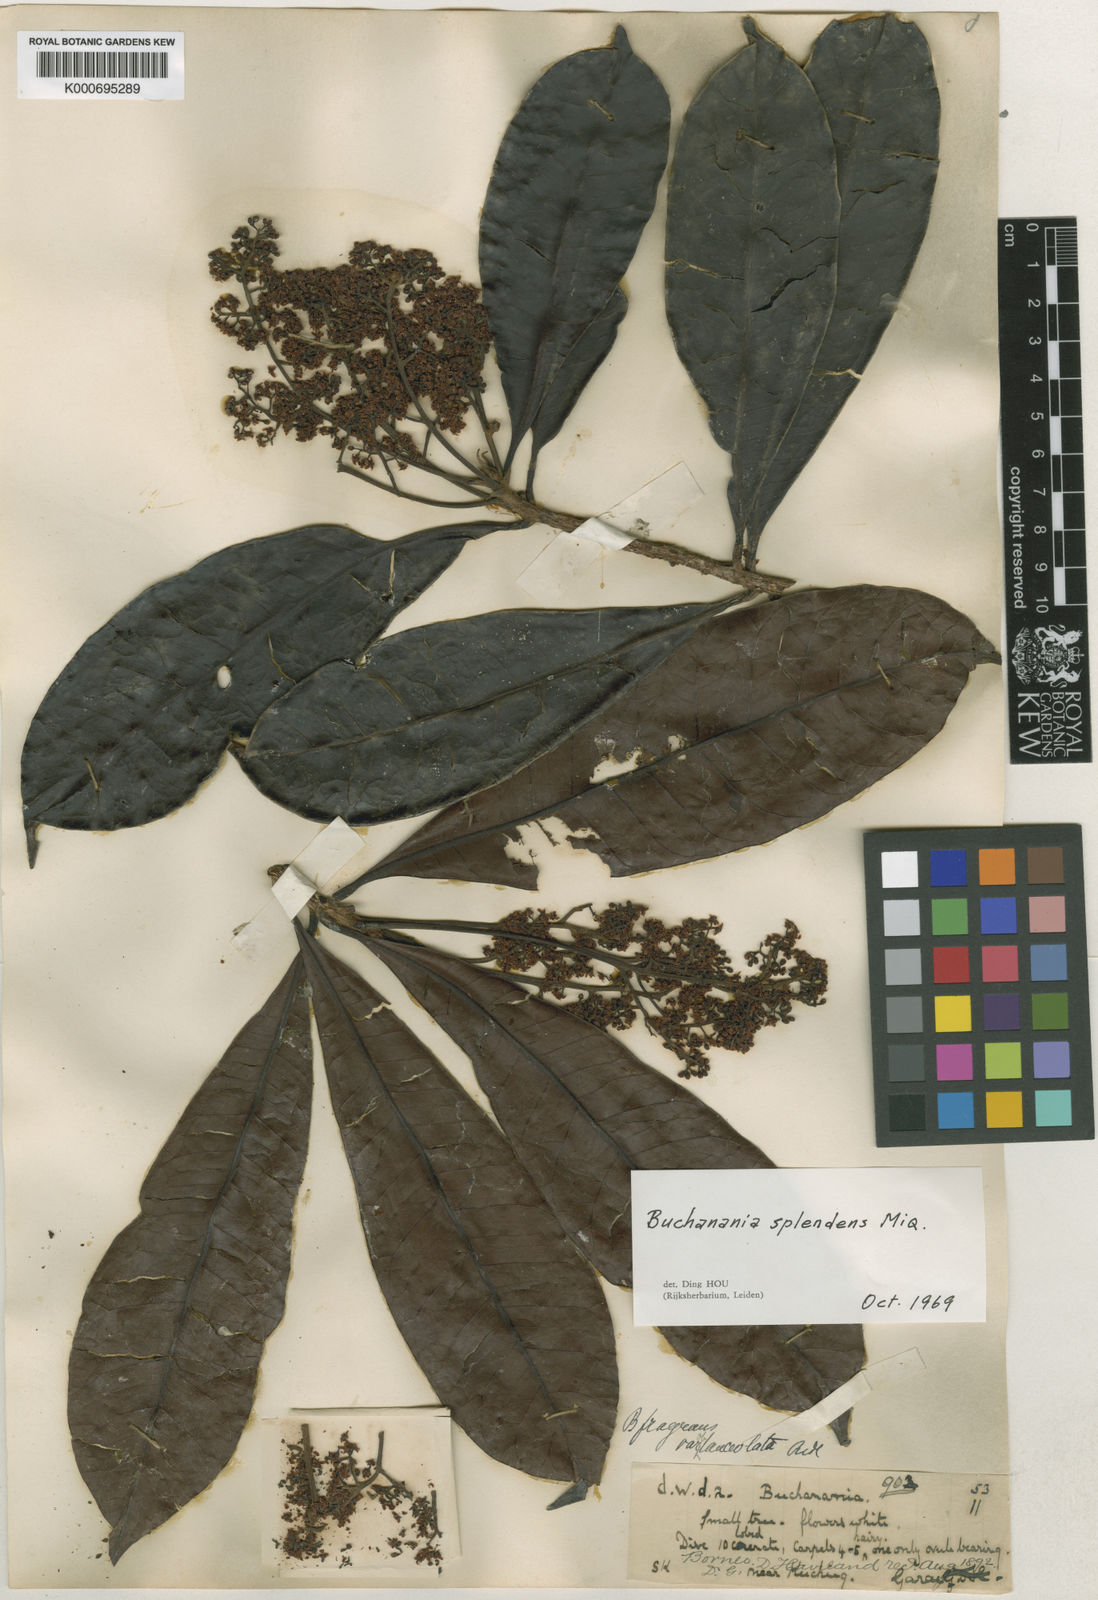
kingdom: Plantae
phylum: Tracheophyta
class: Magnoliopsida
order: Sapindales
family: Anacardiaceae
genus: Buchanania
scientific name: Buchanania splendens
